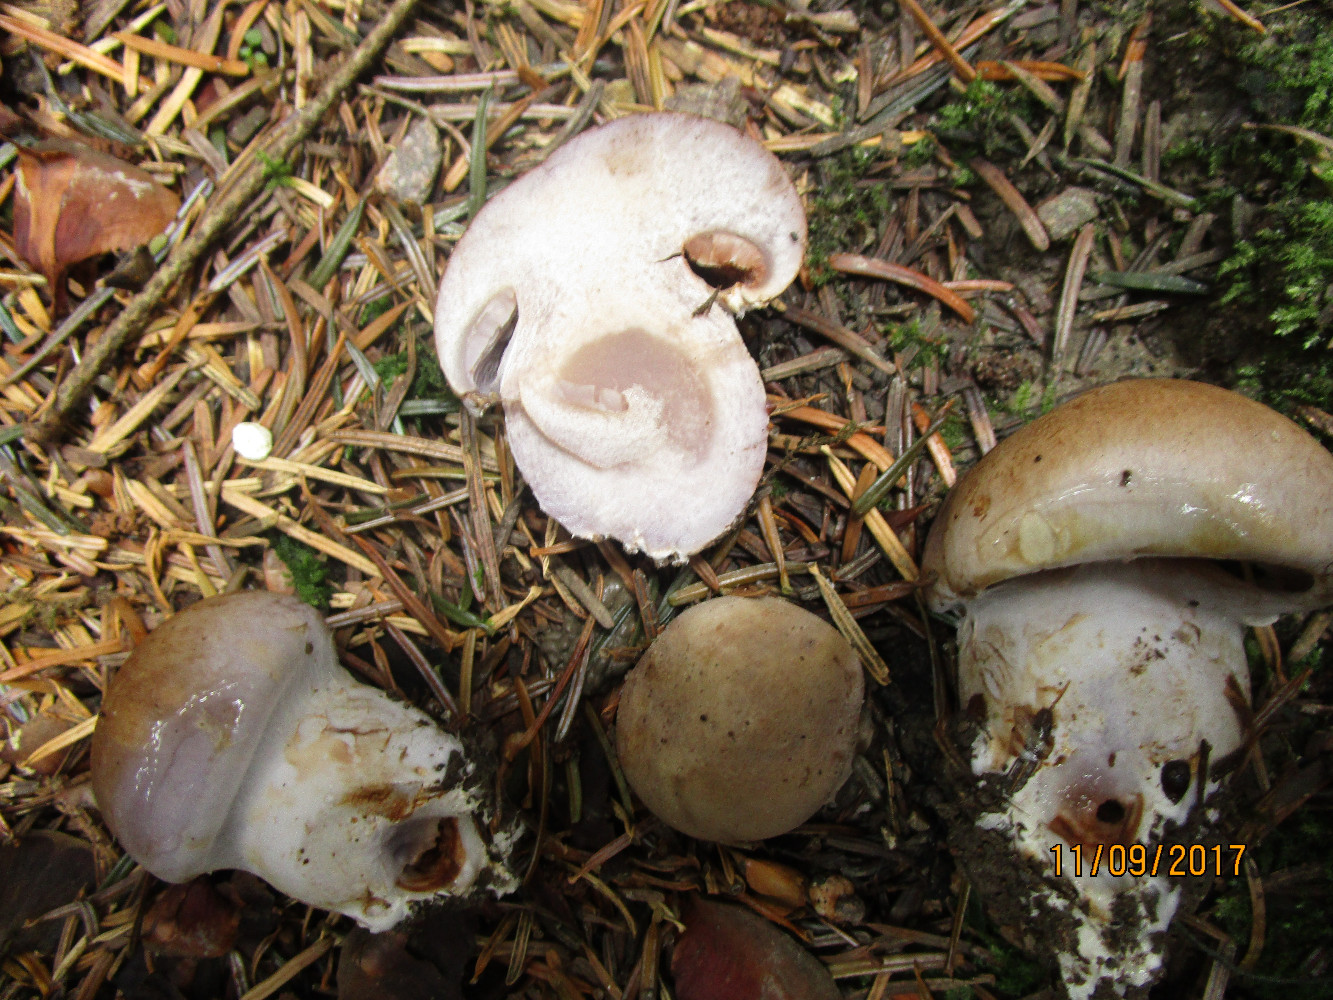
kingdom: Fungi
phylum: Basidiomycota
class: Agaricomycetes
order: Agaricales
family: Cortinariaceae
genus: Cortinarius
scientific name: Cortinarius largus
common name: violetrandet slørhat
